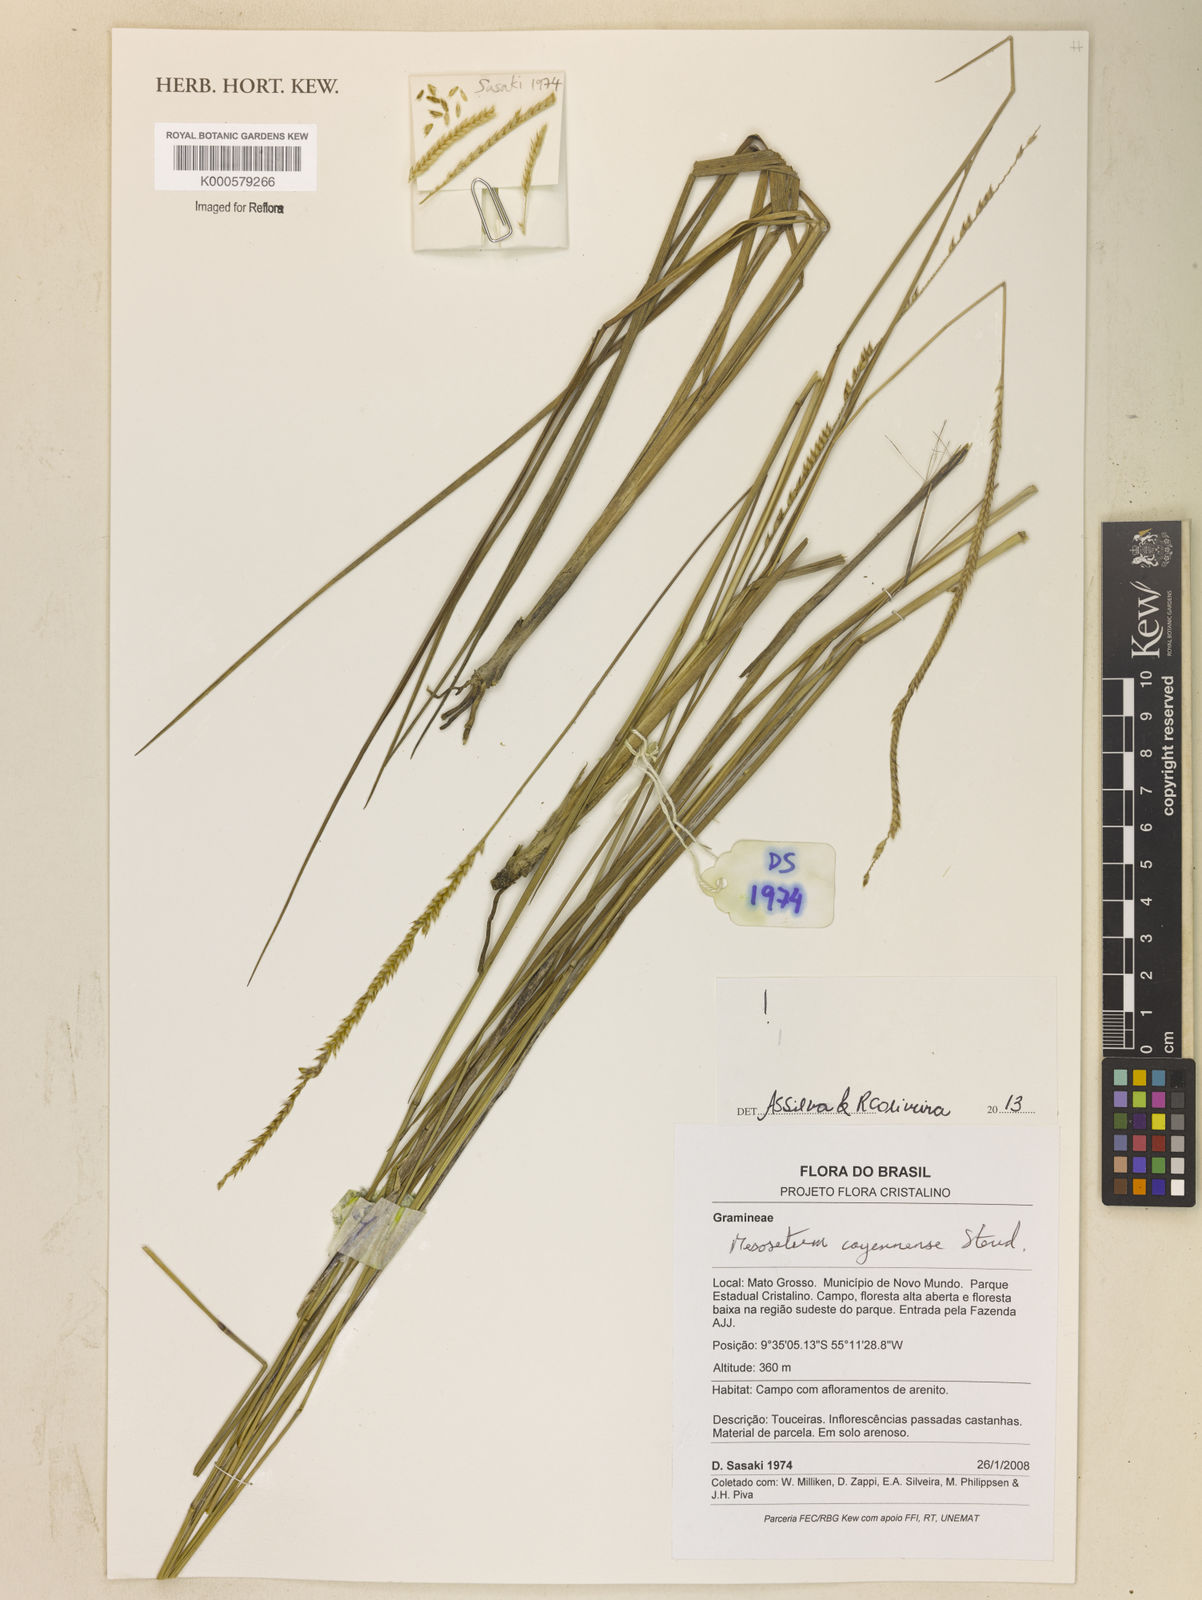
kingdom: Plantae
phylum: Tracheophyta
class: Liliopsida
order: Poales
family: Poaceae
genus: Mesosetum
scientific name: Mesosetum cayennense
